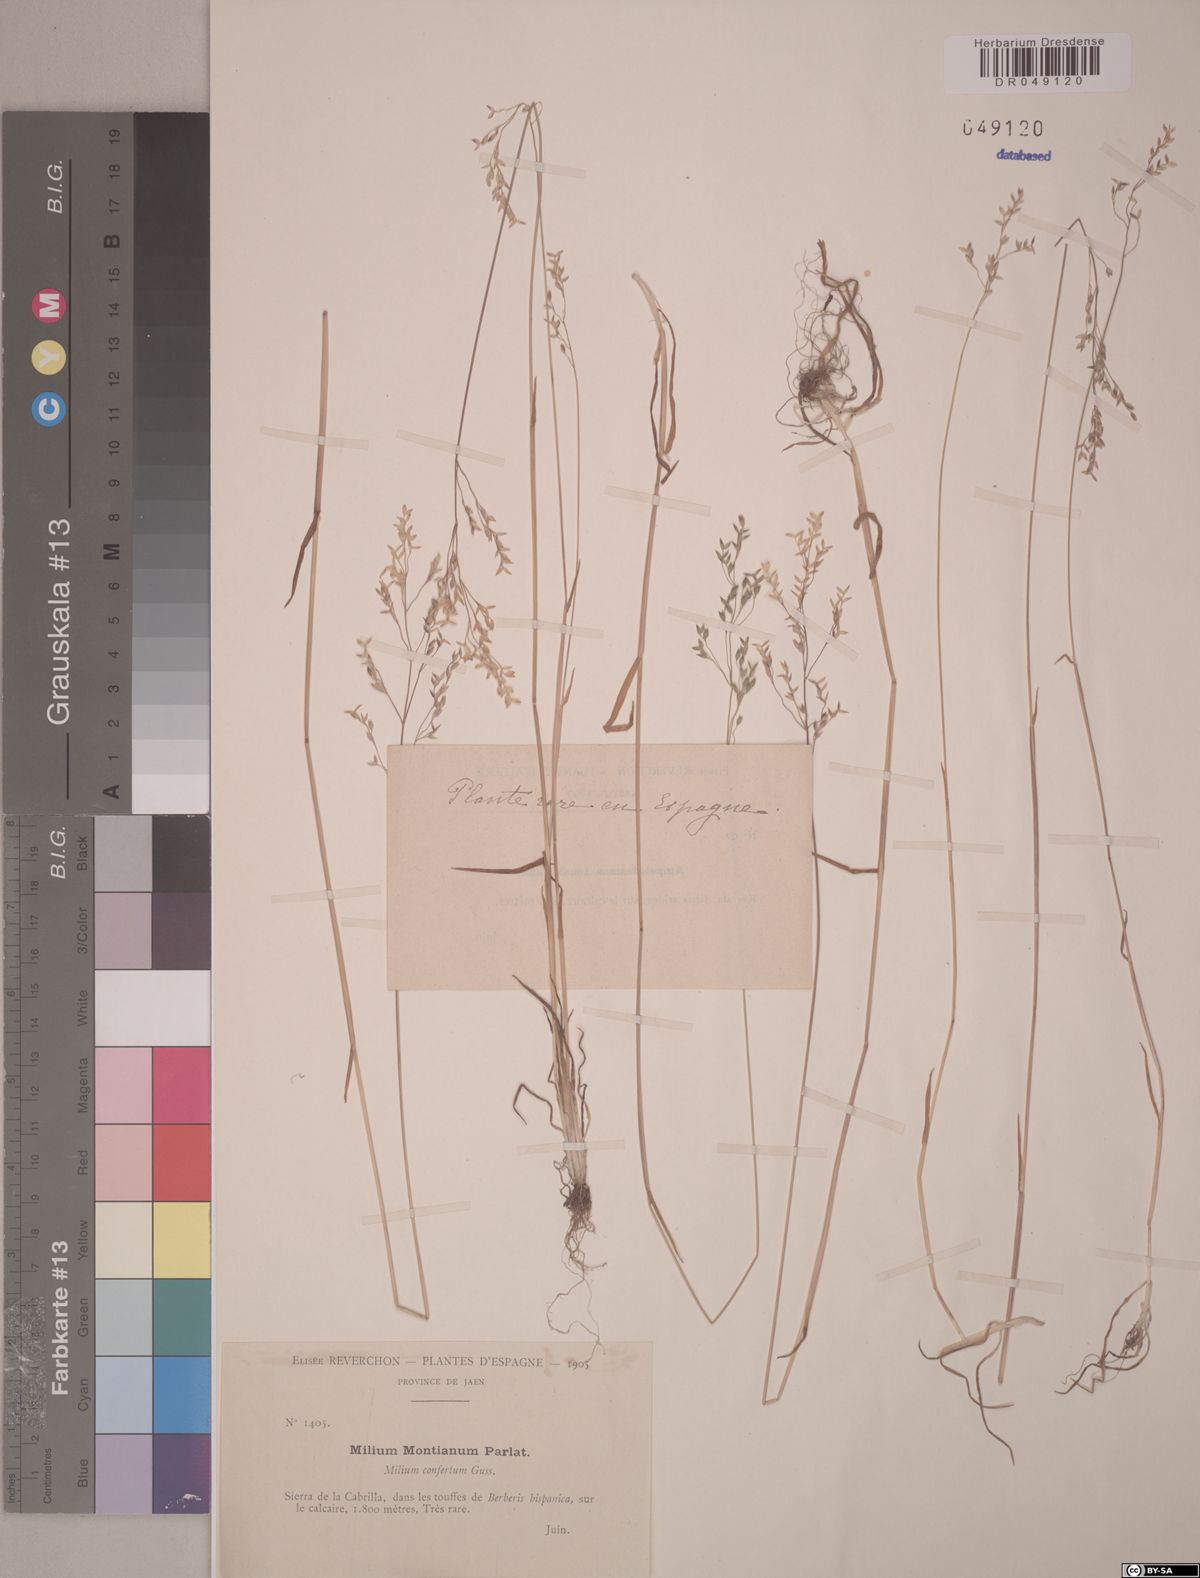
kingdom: Plantae
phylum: Tracheophyta
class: Liliopsida
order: Poales
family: Poaceae
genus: Milium
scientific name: Milium vernale
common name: Early millet
